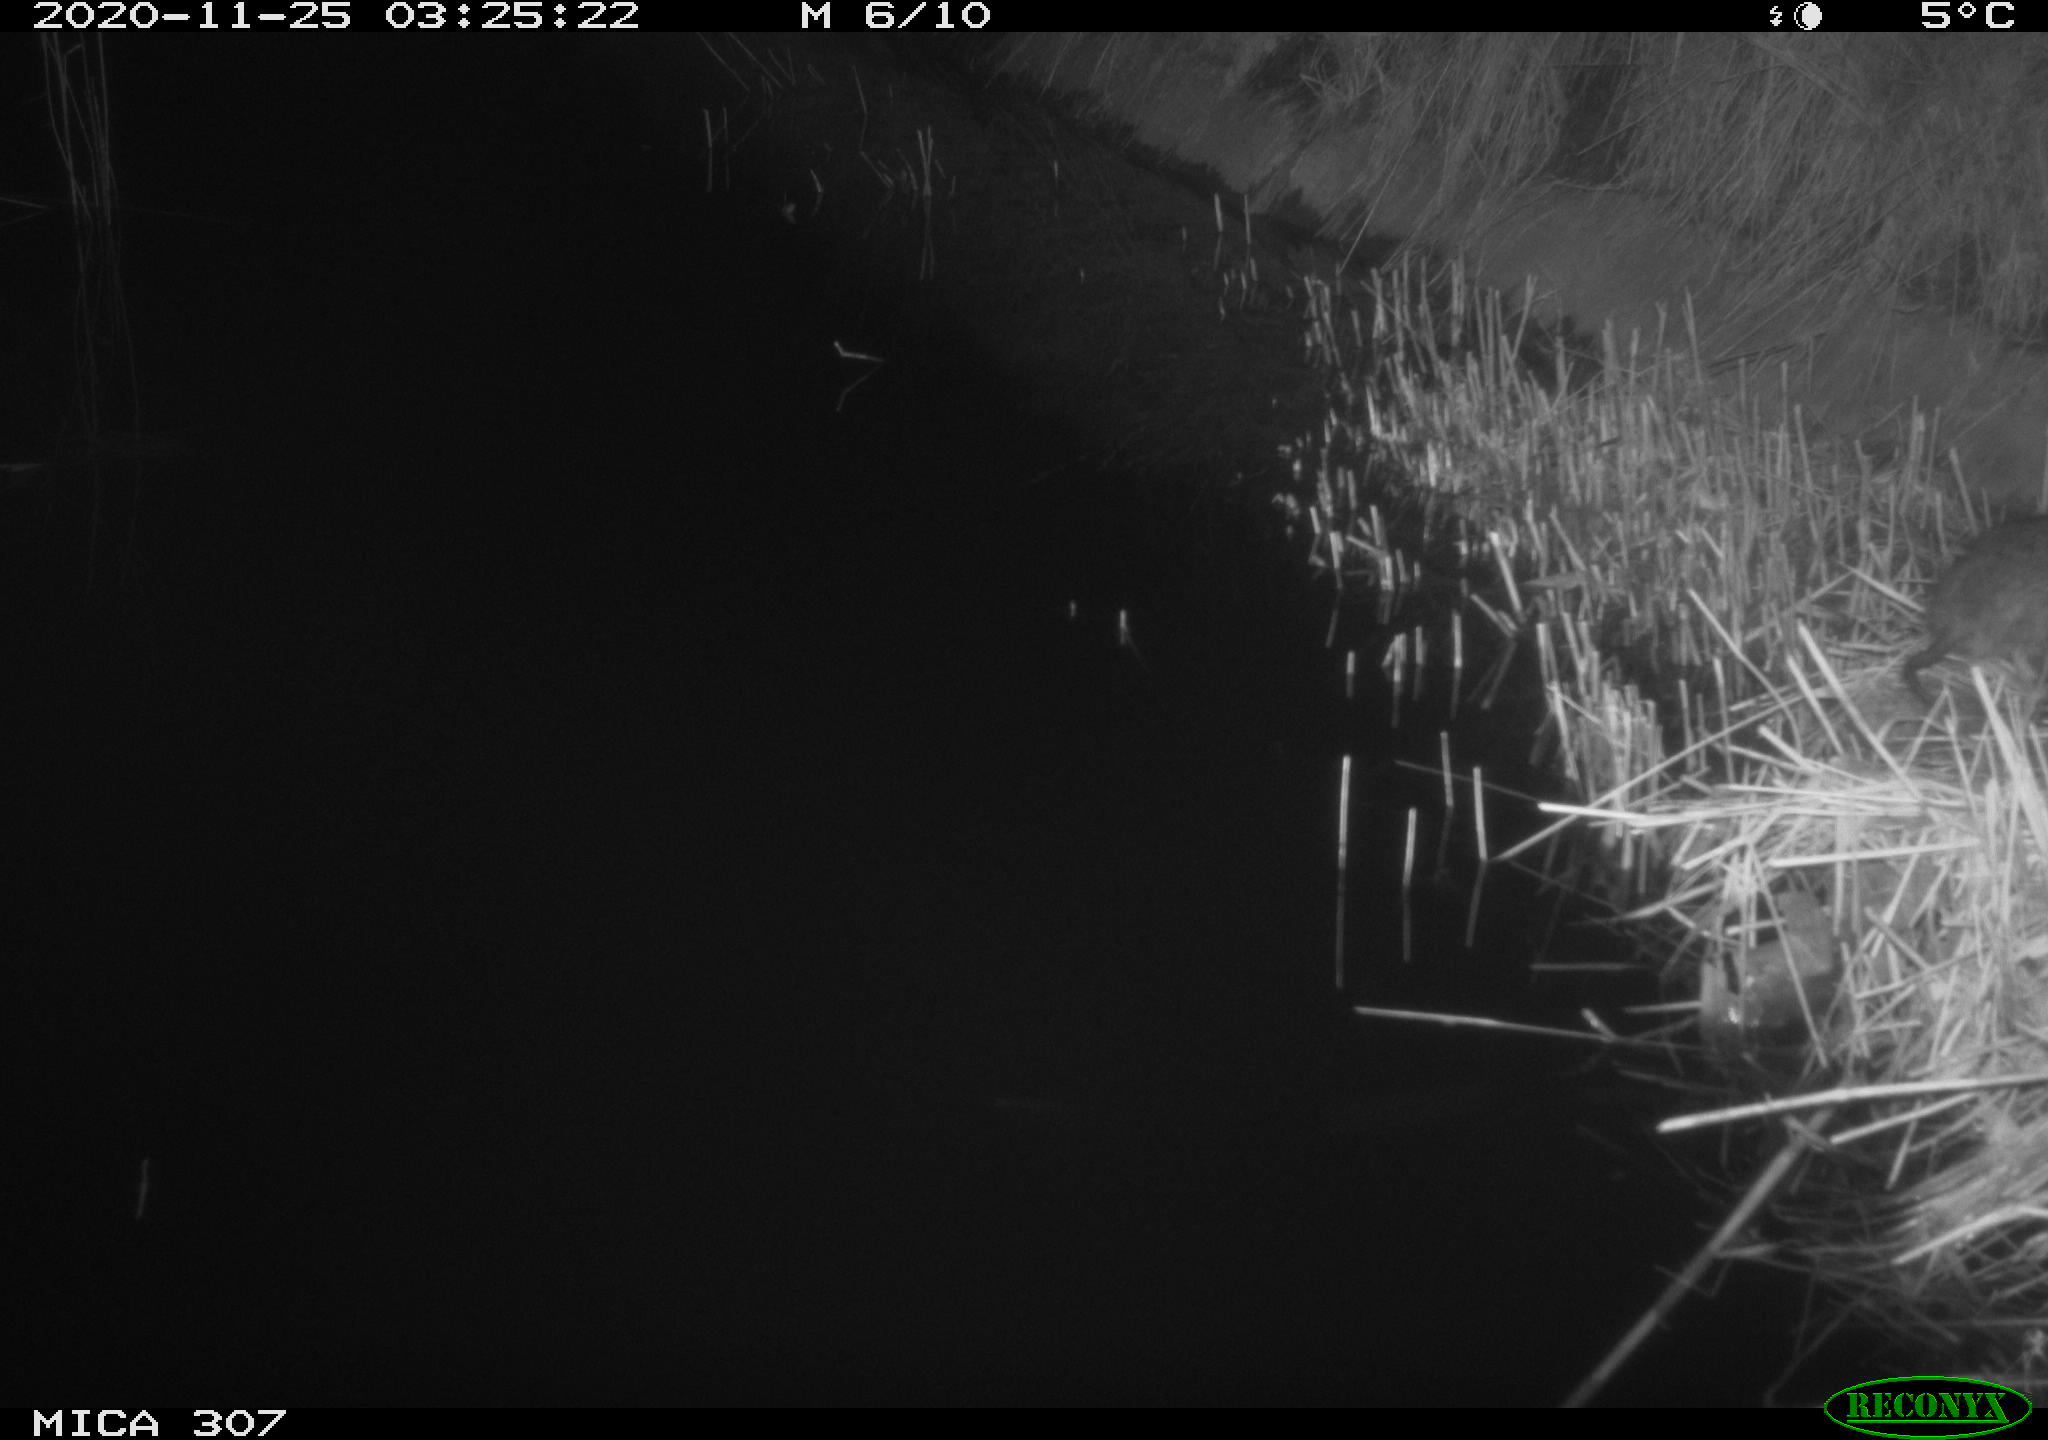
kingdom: Animalia
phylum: Chordata
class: Mammalia
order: Rodentia
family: Muridae
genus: Rattus
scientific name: Rattus norvegicus
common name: Brown rat
